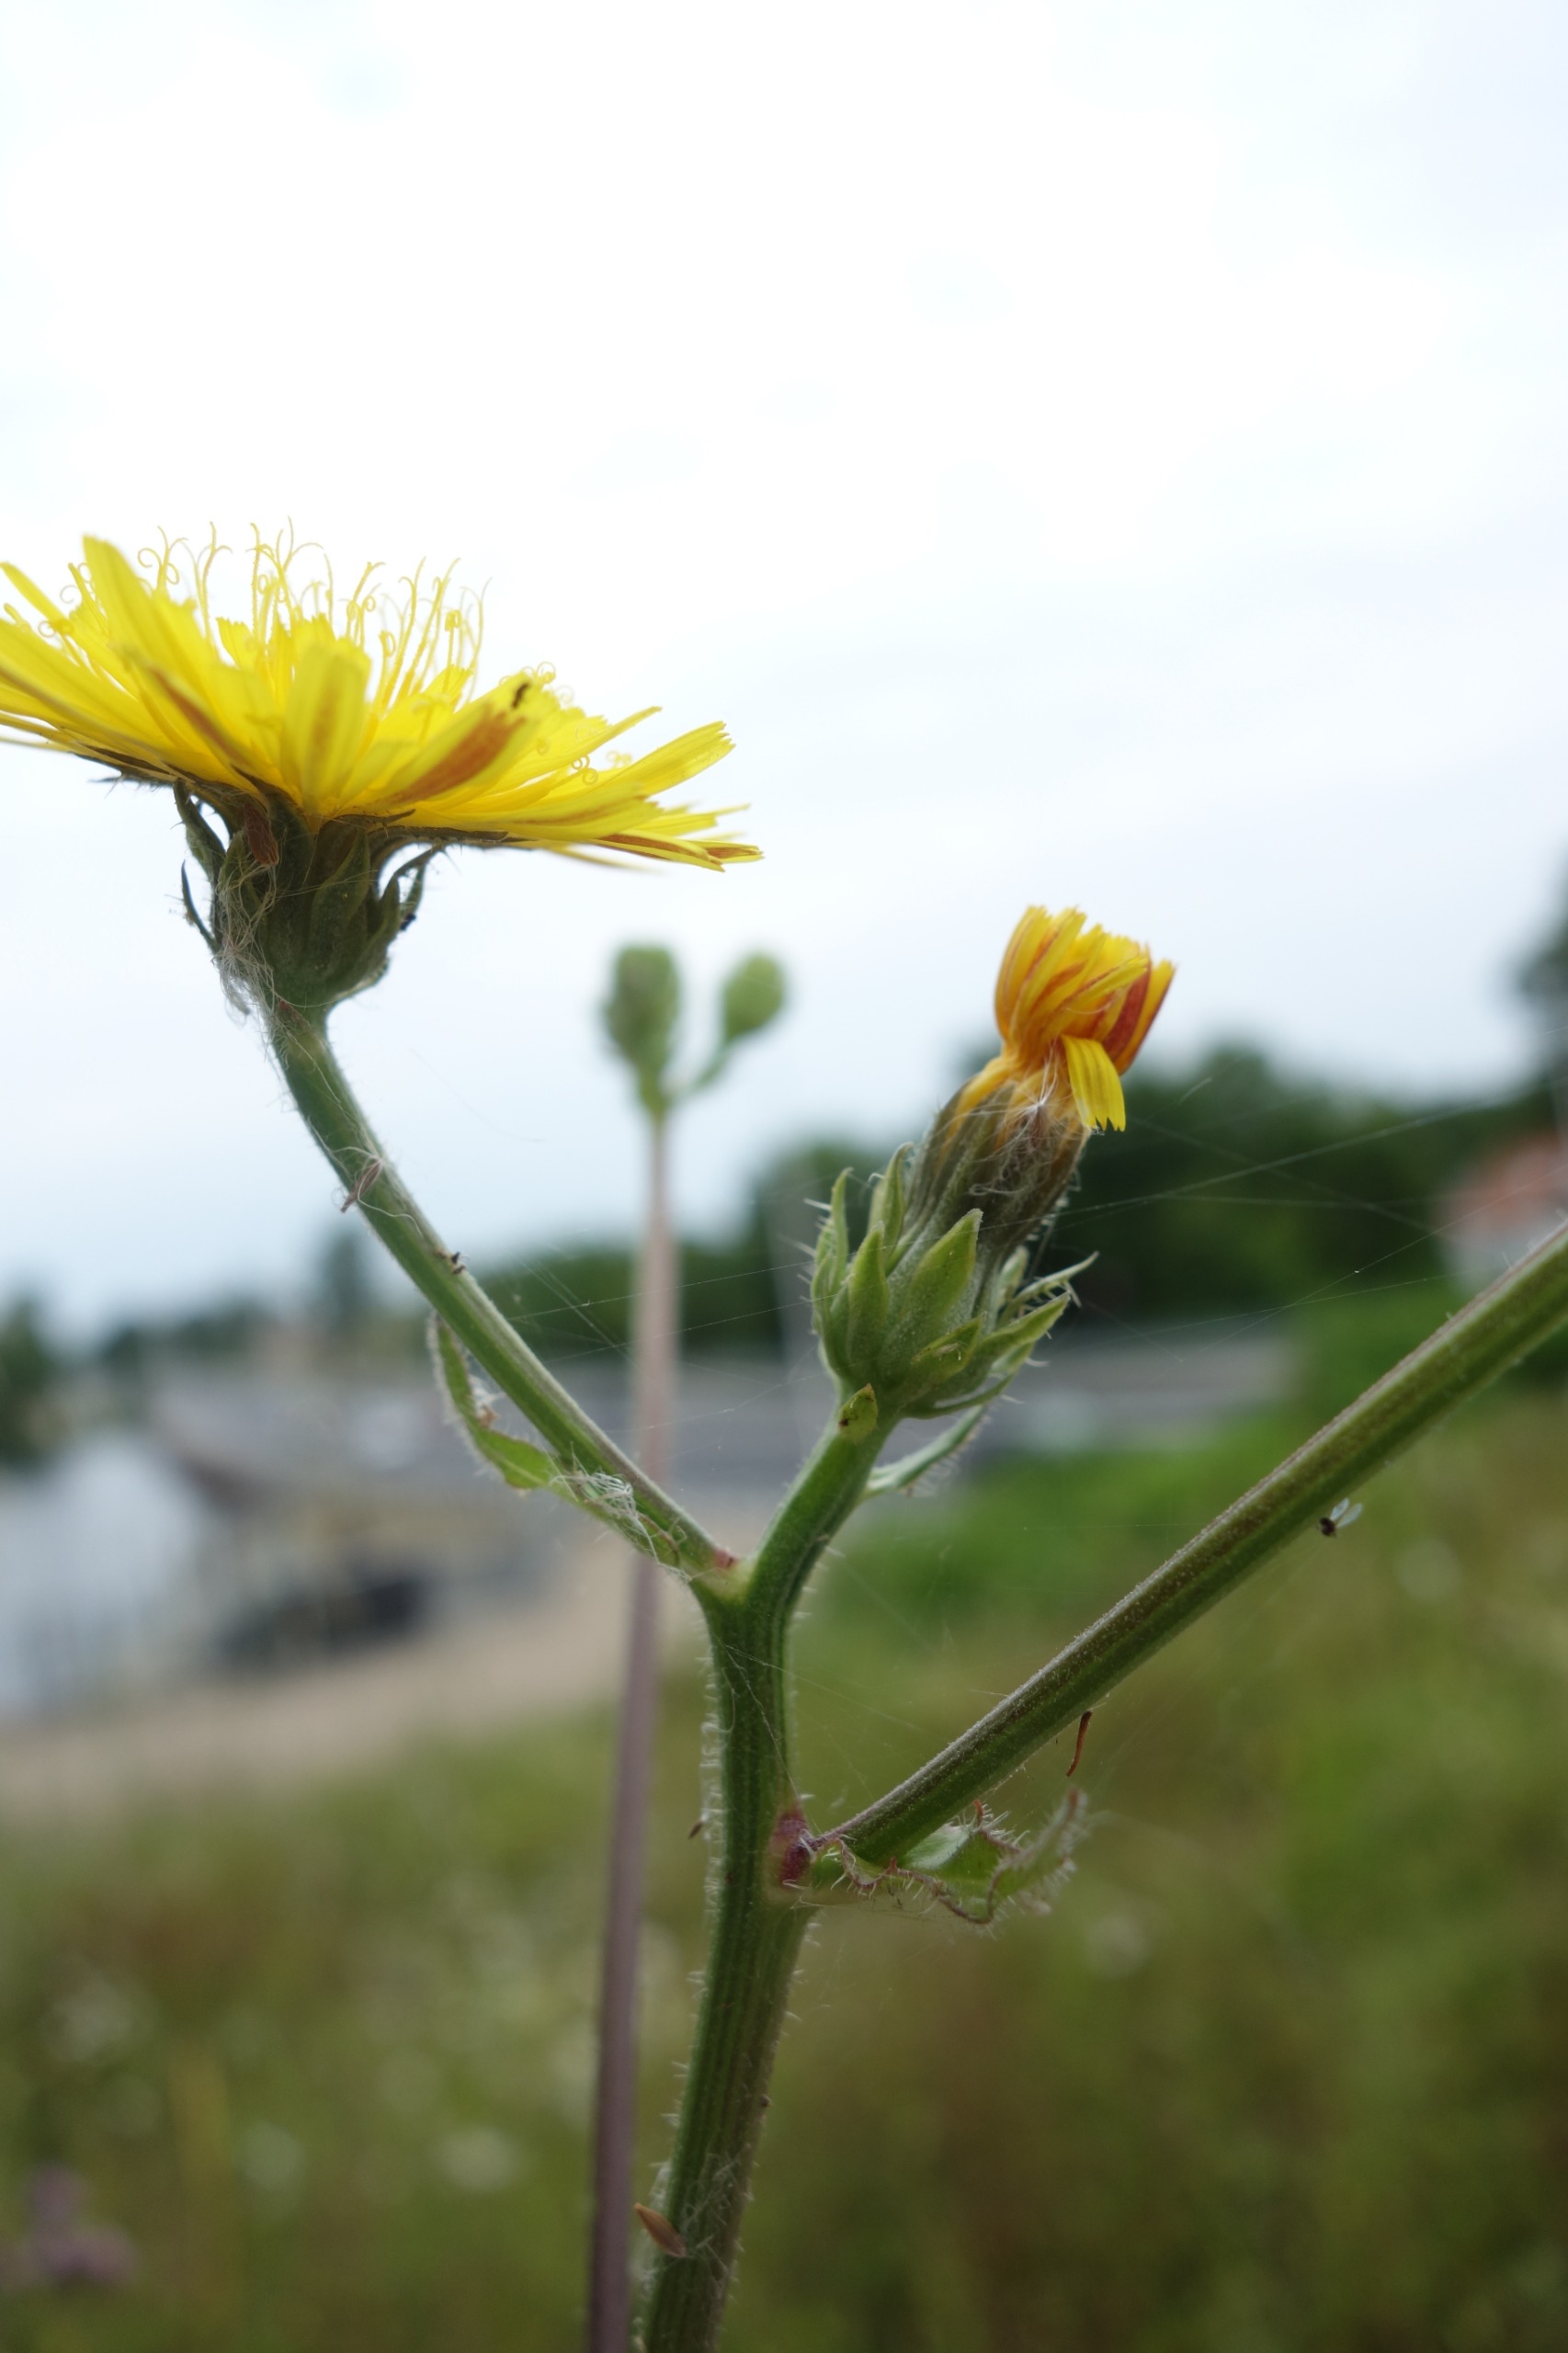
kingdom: Plantae
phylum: Tracheophyta
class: Magnoliopsida
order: Asterales
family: Asteraceae
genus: Picris
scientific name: Picris hieracioides
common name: Ru bittermælk
